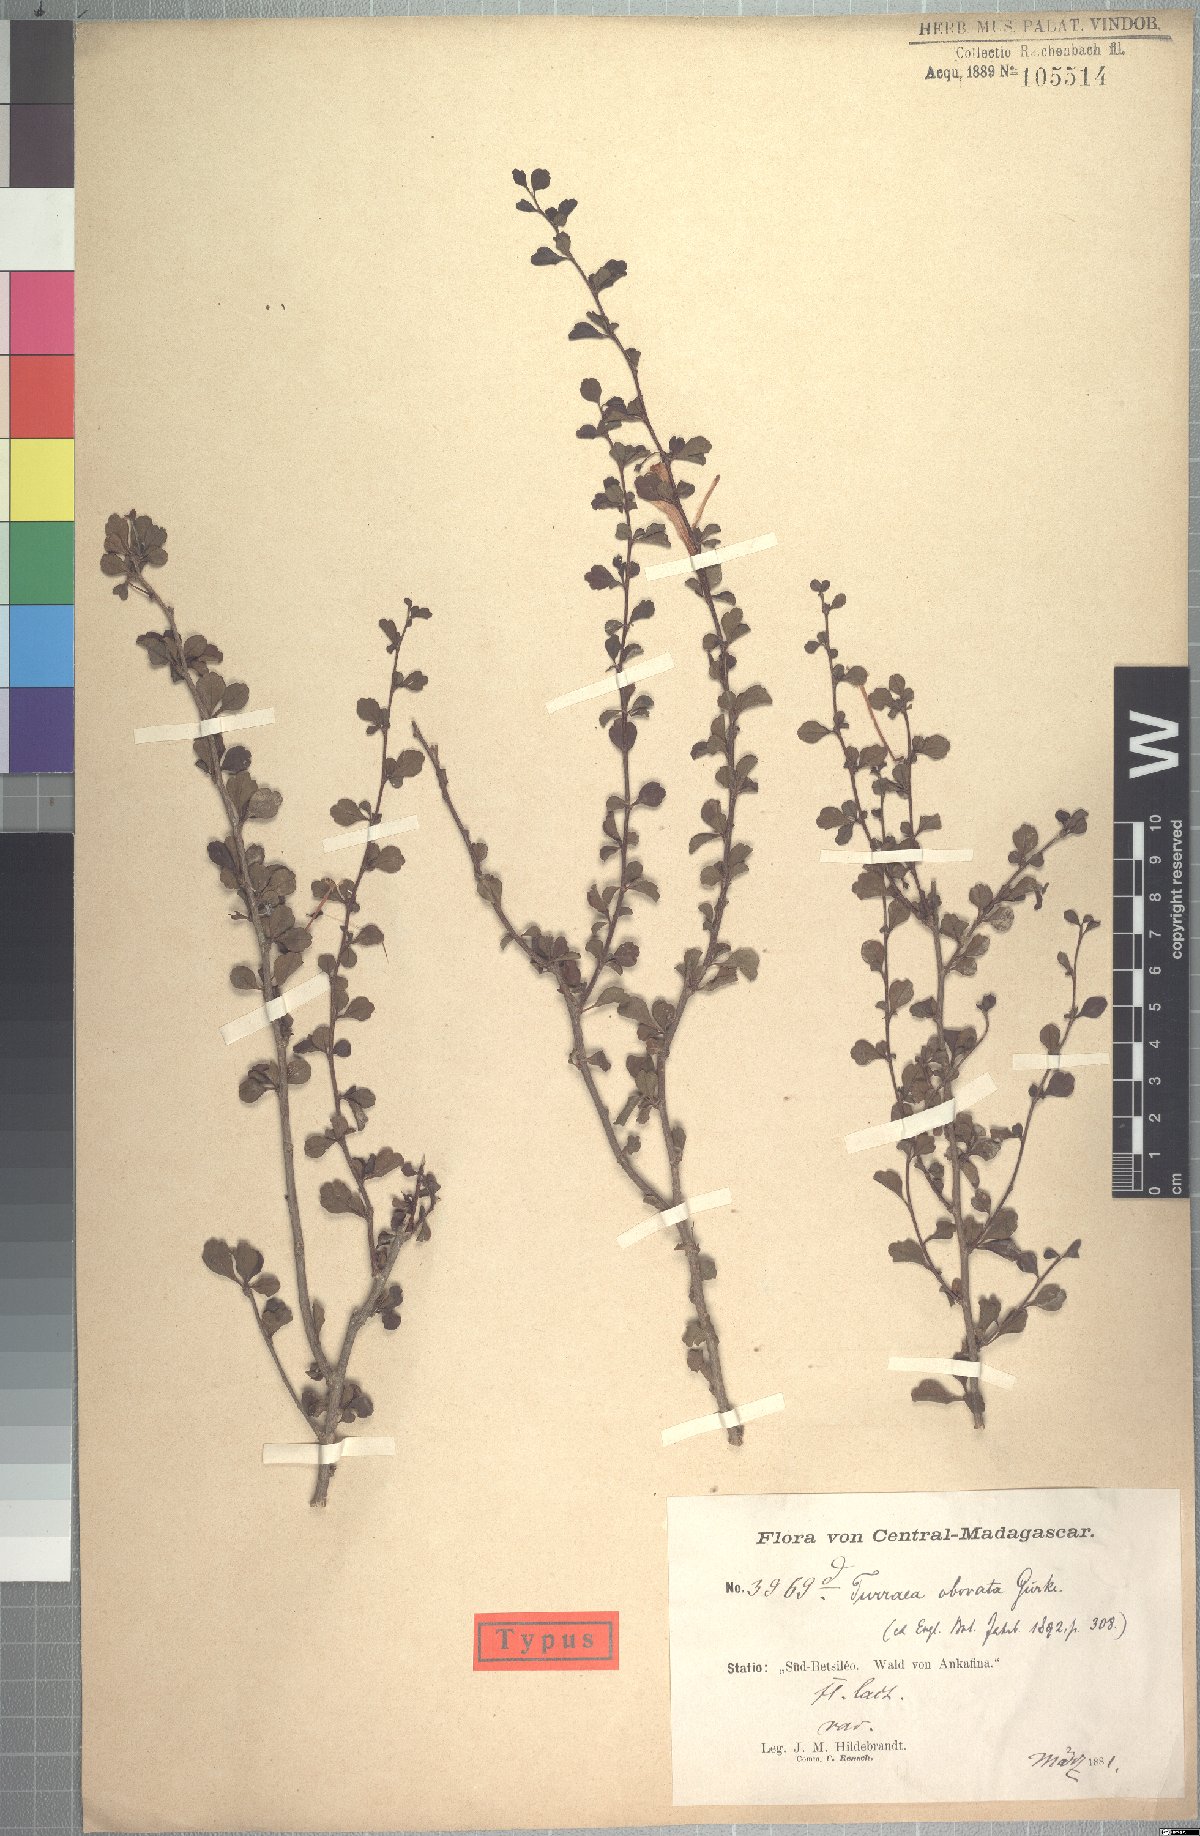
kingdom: Plantae
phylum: Tracheophyta
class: Magnoliopsida
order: Sapindales
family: Meliaceae
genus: Turraea
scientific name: Turraea obovata
